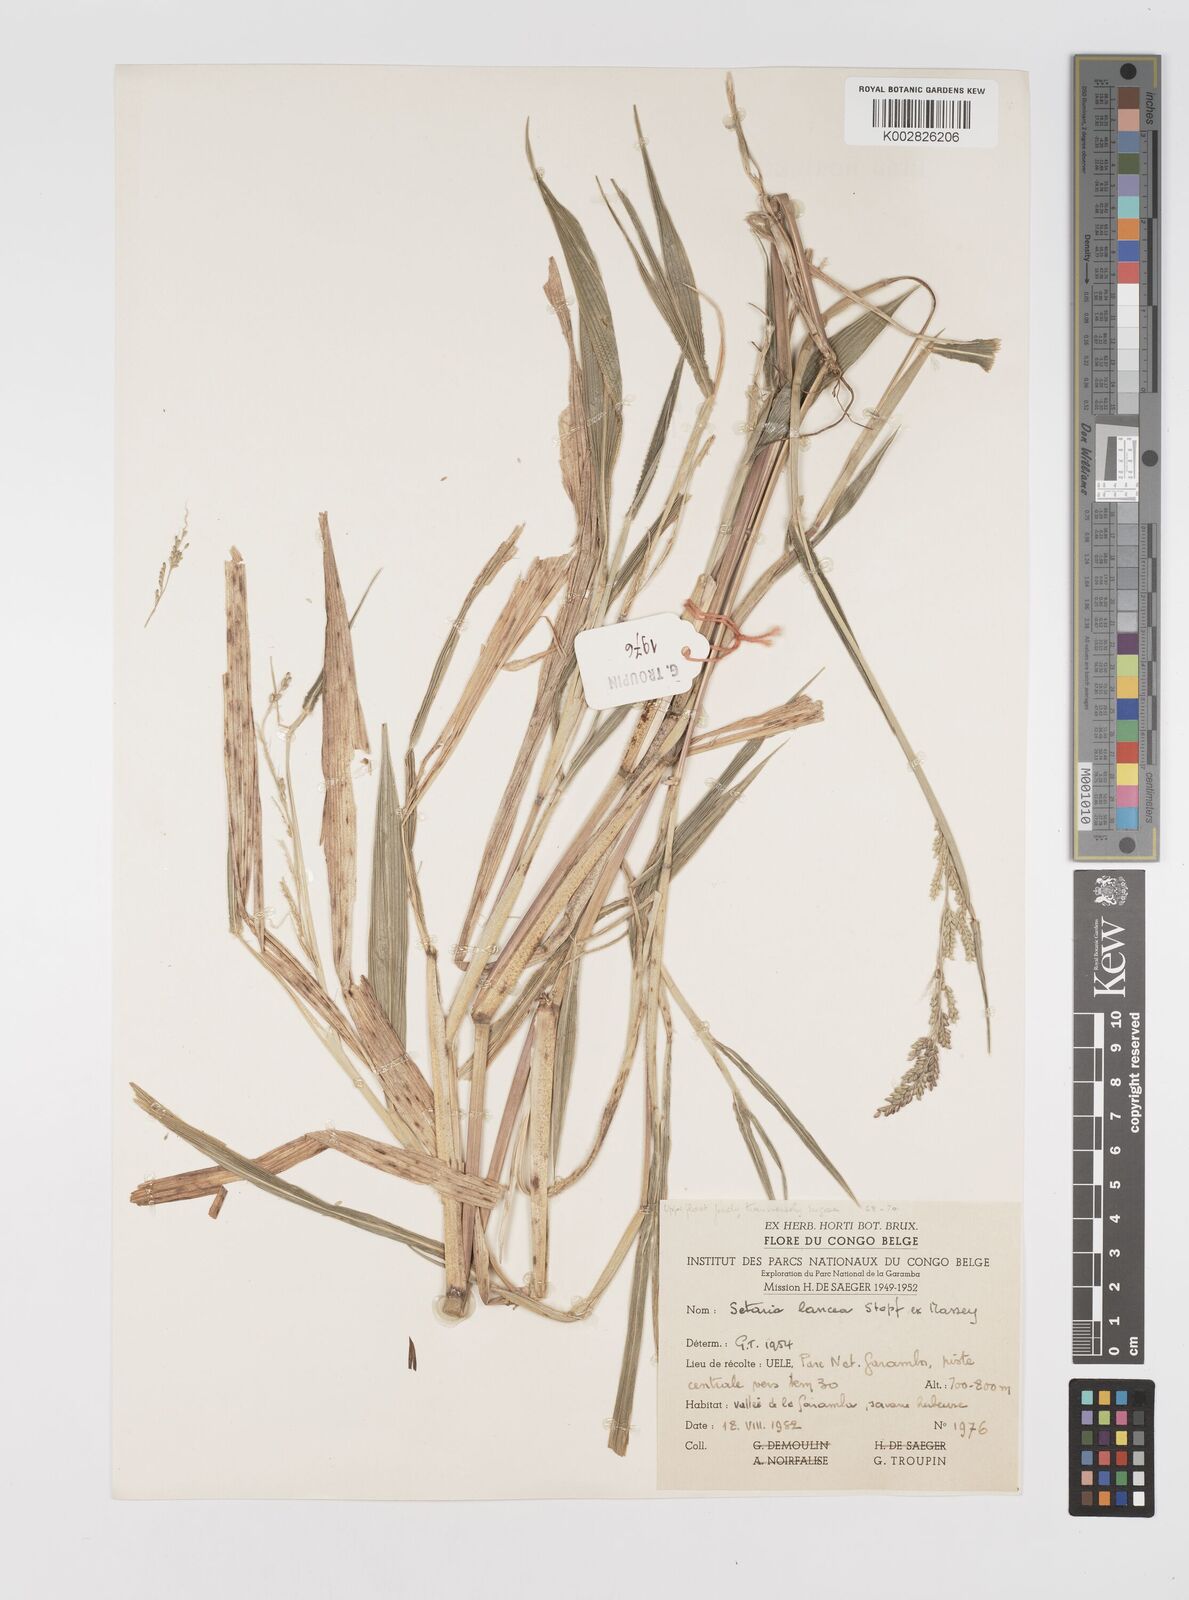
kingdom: Plantae
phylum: Tracheophyta
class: Liliopsida
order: Poales
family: Poaceae
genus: Setaria
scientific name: Setaria homonyma
